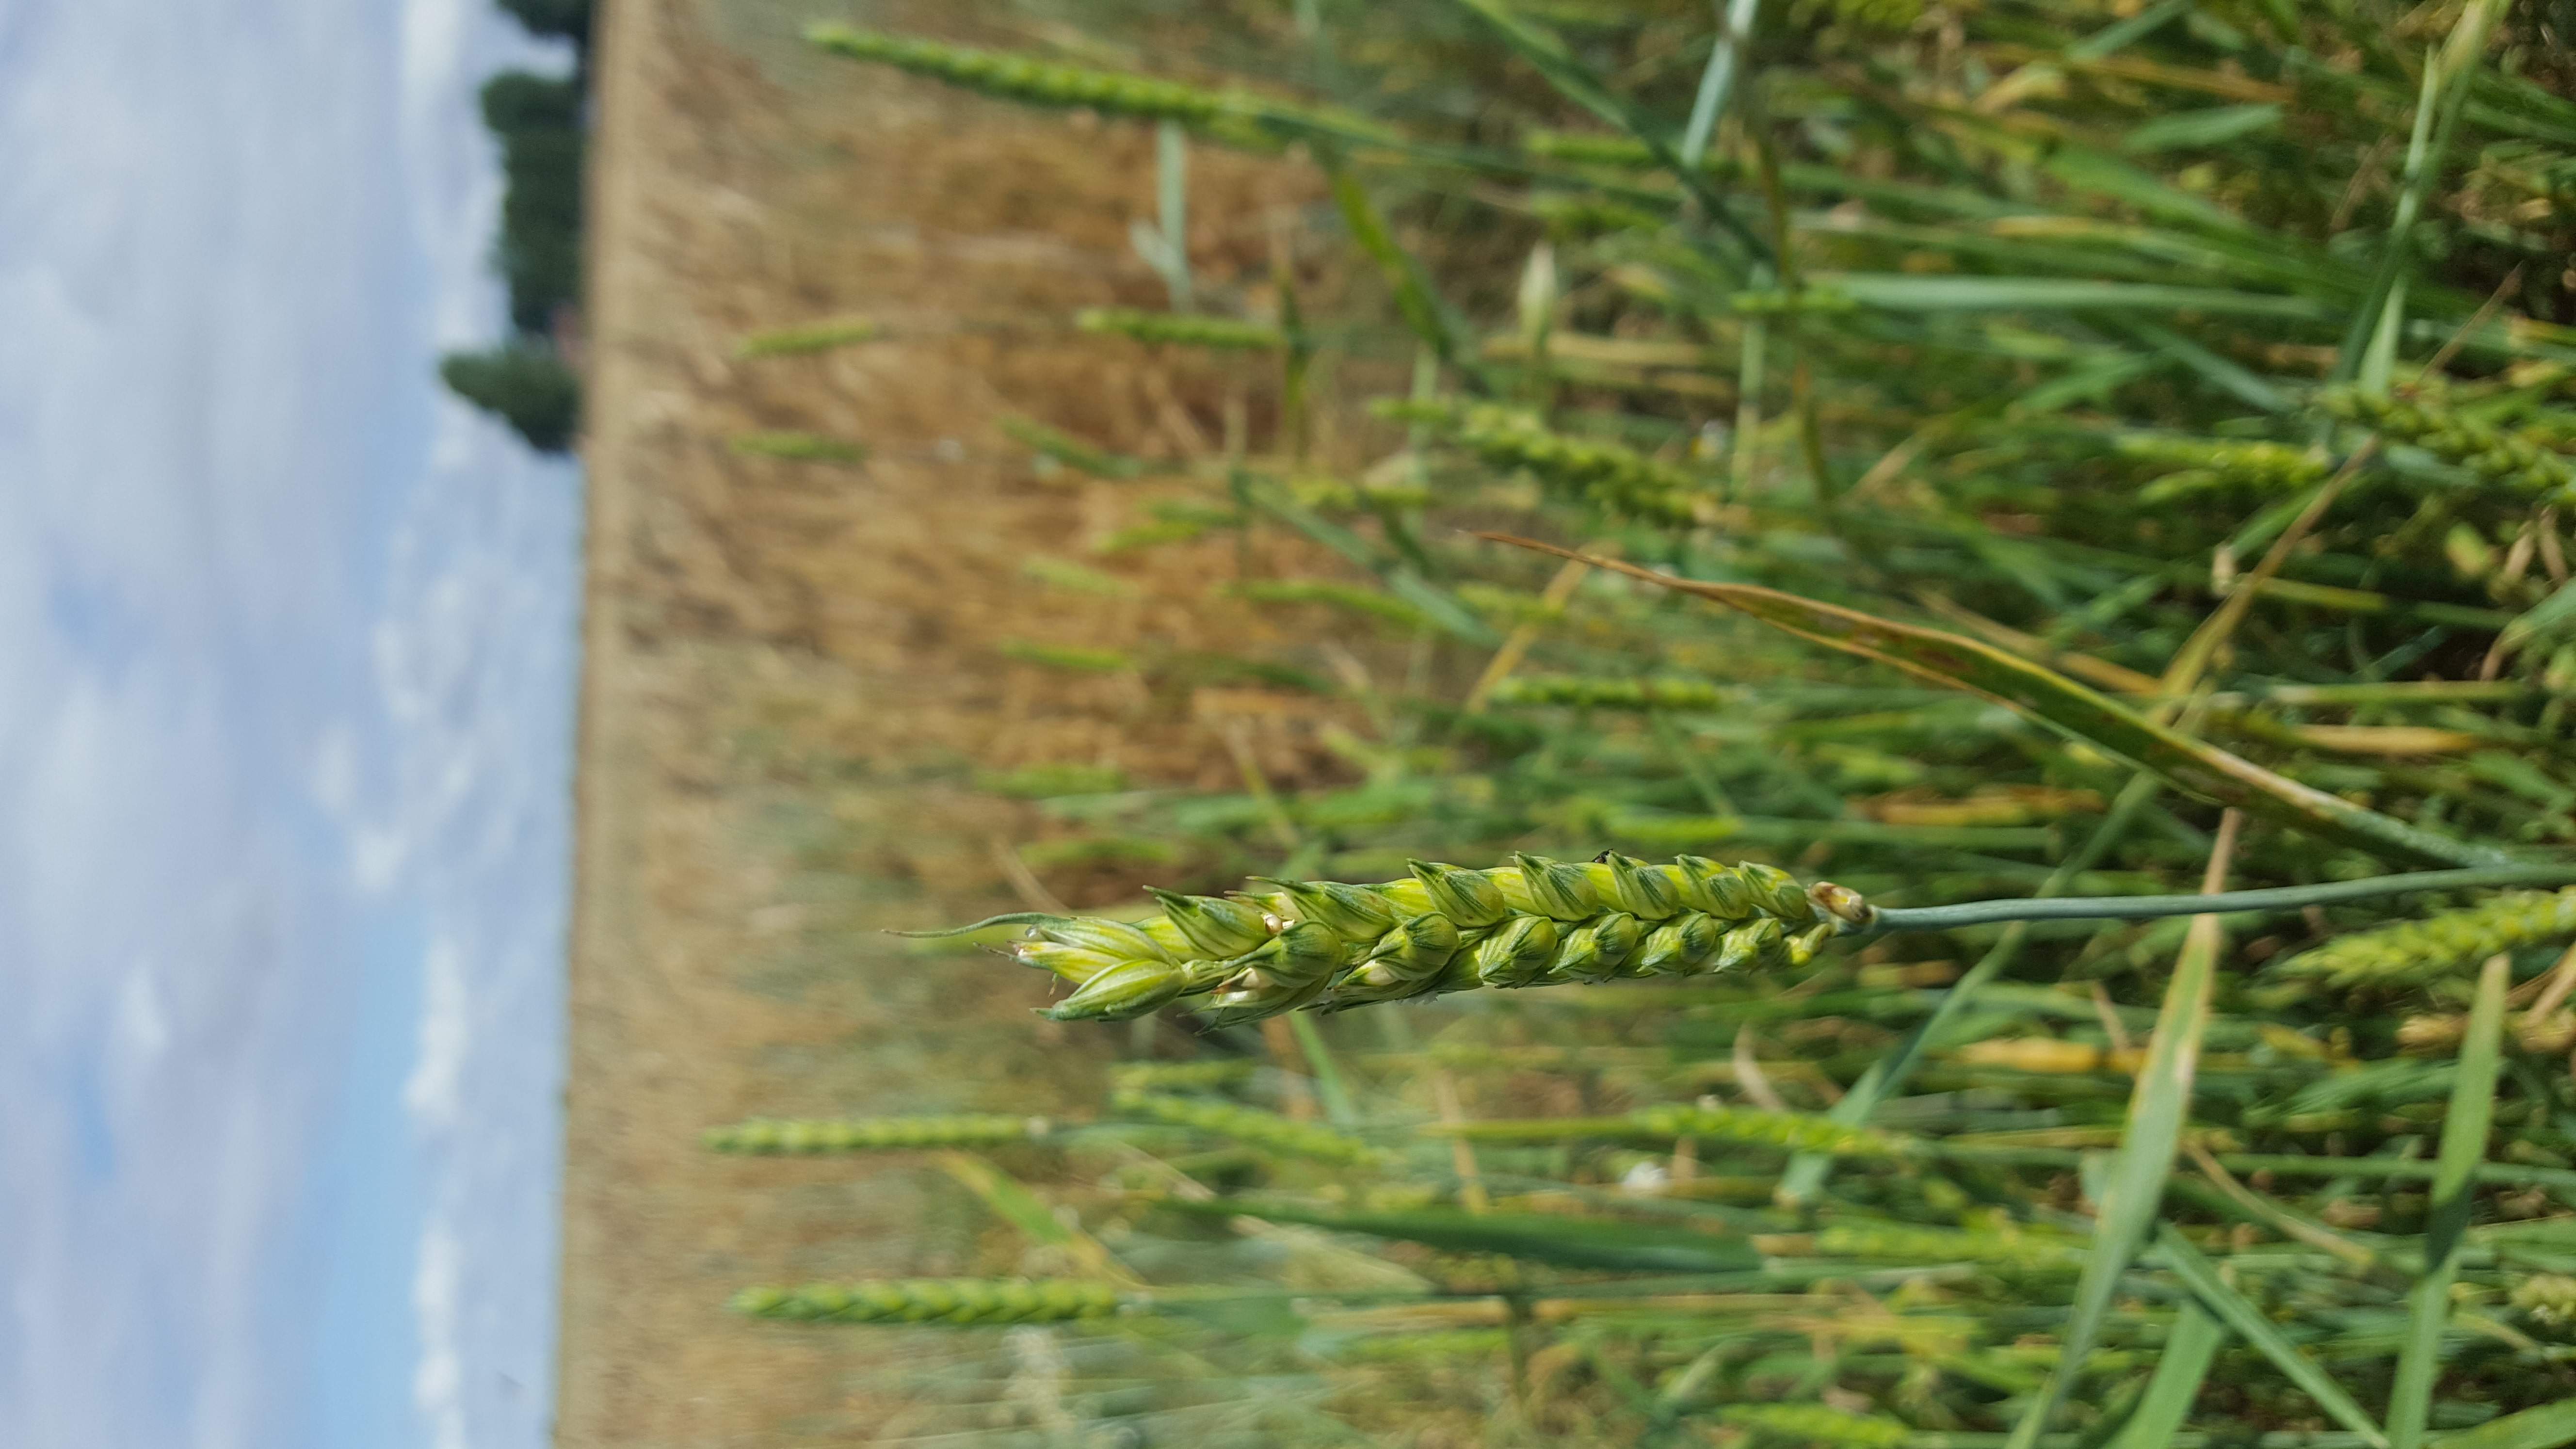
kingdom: Plantae
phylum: Tracheophyta
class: Liliopsida
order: Poales
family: Poaceae
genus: Triticum
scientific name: Triticum aestivum
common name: Common wheat
